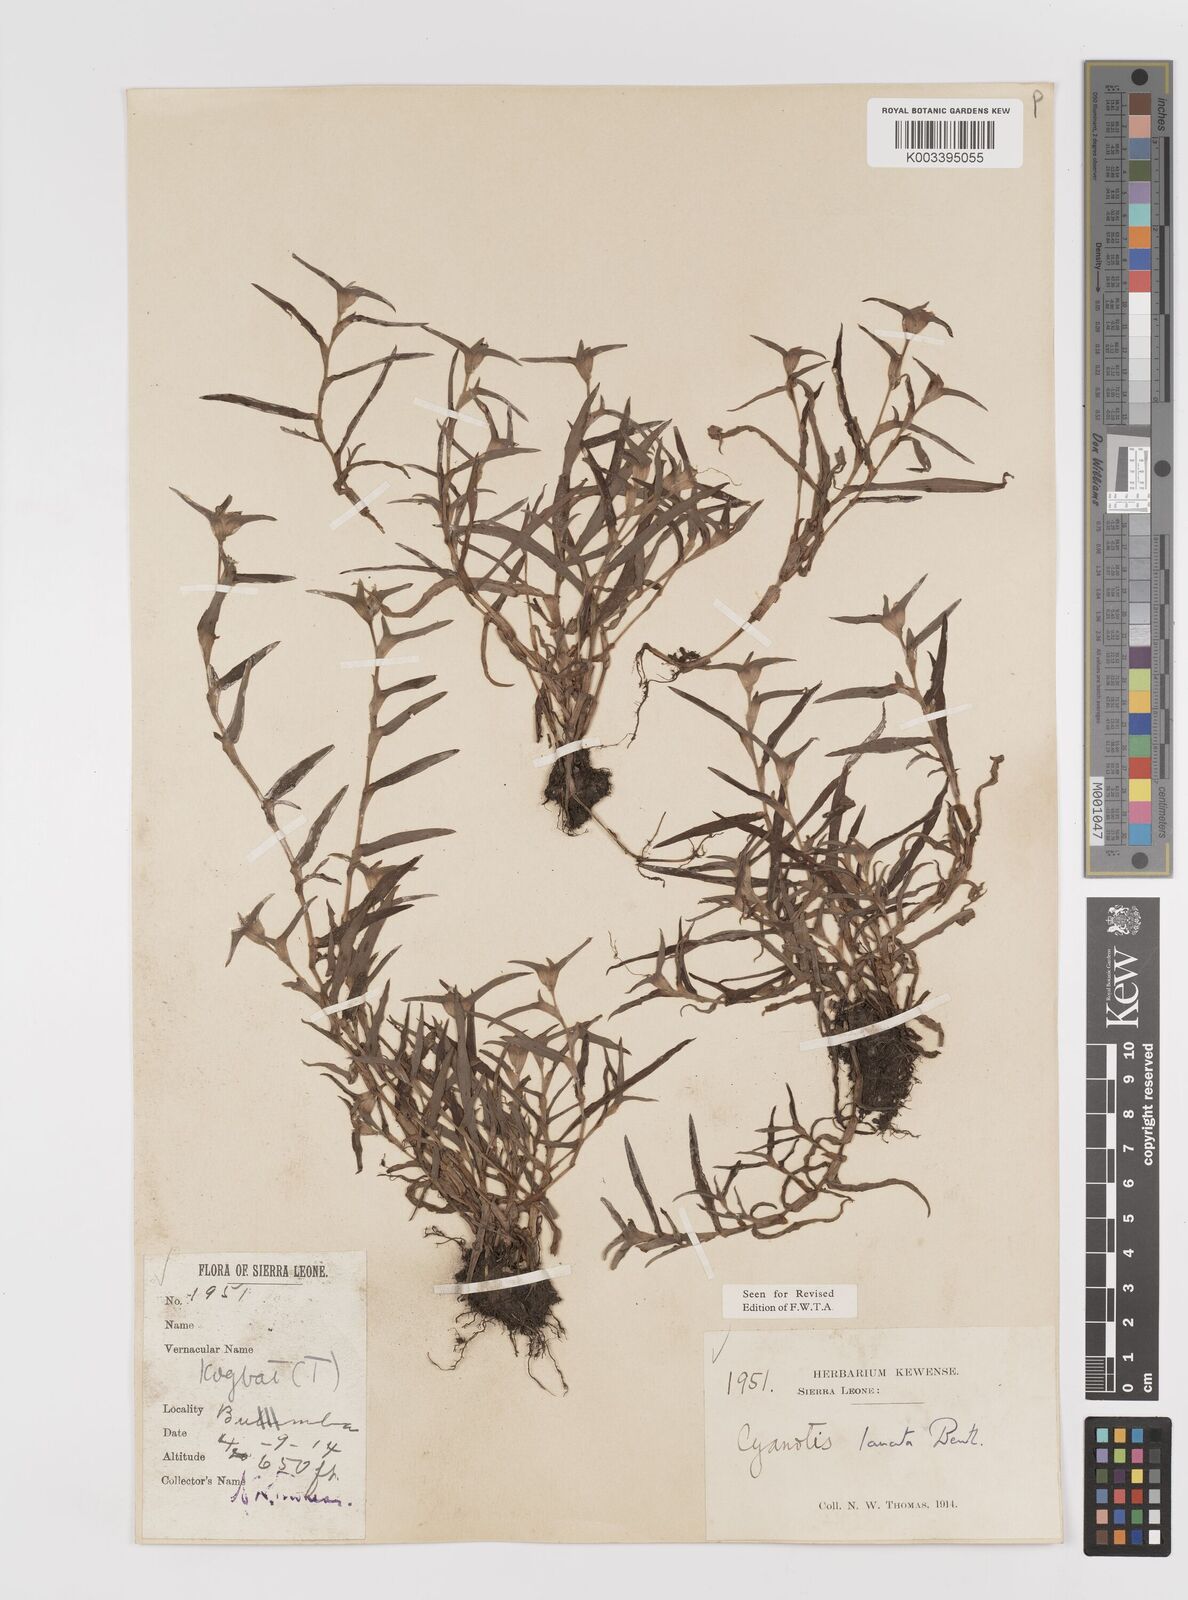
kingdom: Plantae
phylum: Tracheophyta
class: Liliopsida
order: Commelinales
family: Commelinaceae
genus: Cyanotis
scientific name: Cyanotis lanata
